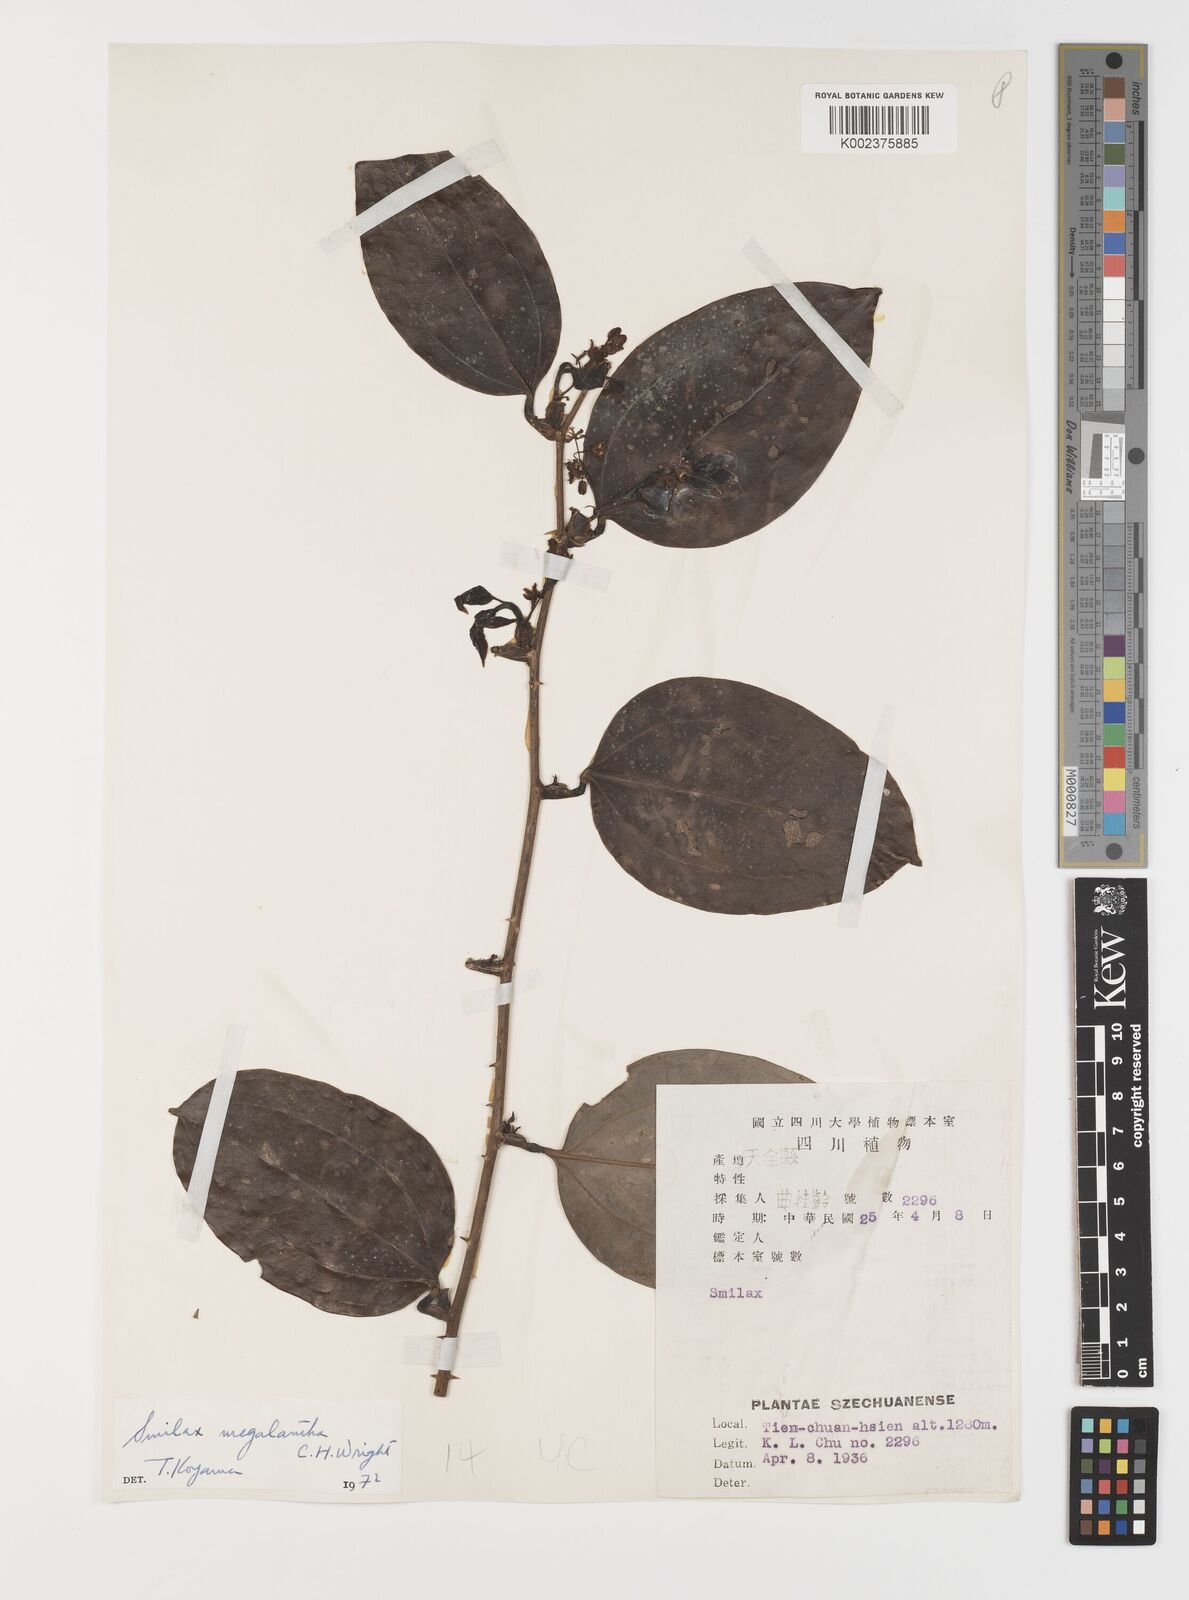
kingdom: Plantae
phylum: Tracheophyta
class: Liliopsida
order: Liliales
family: Smilacaceae
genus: Smilax
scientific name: Smilax megalantha
